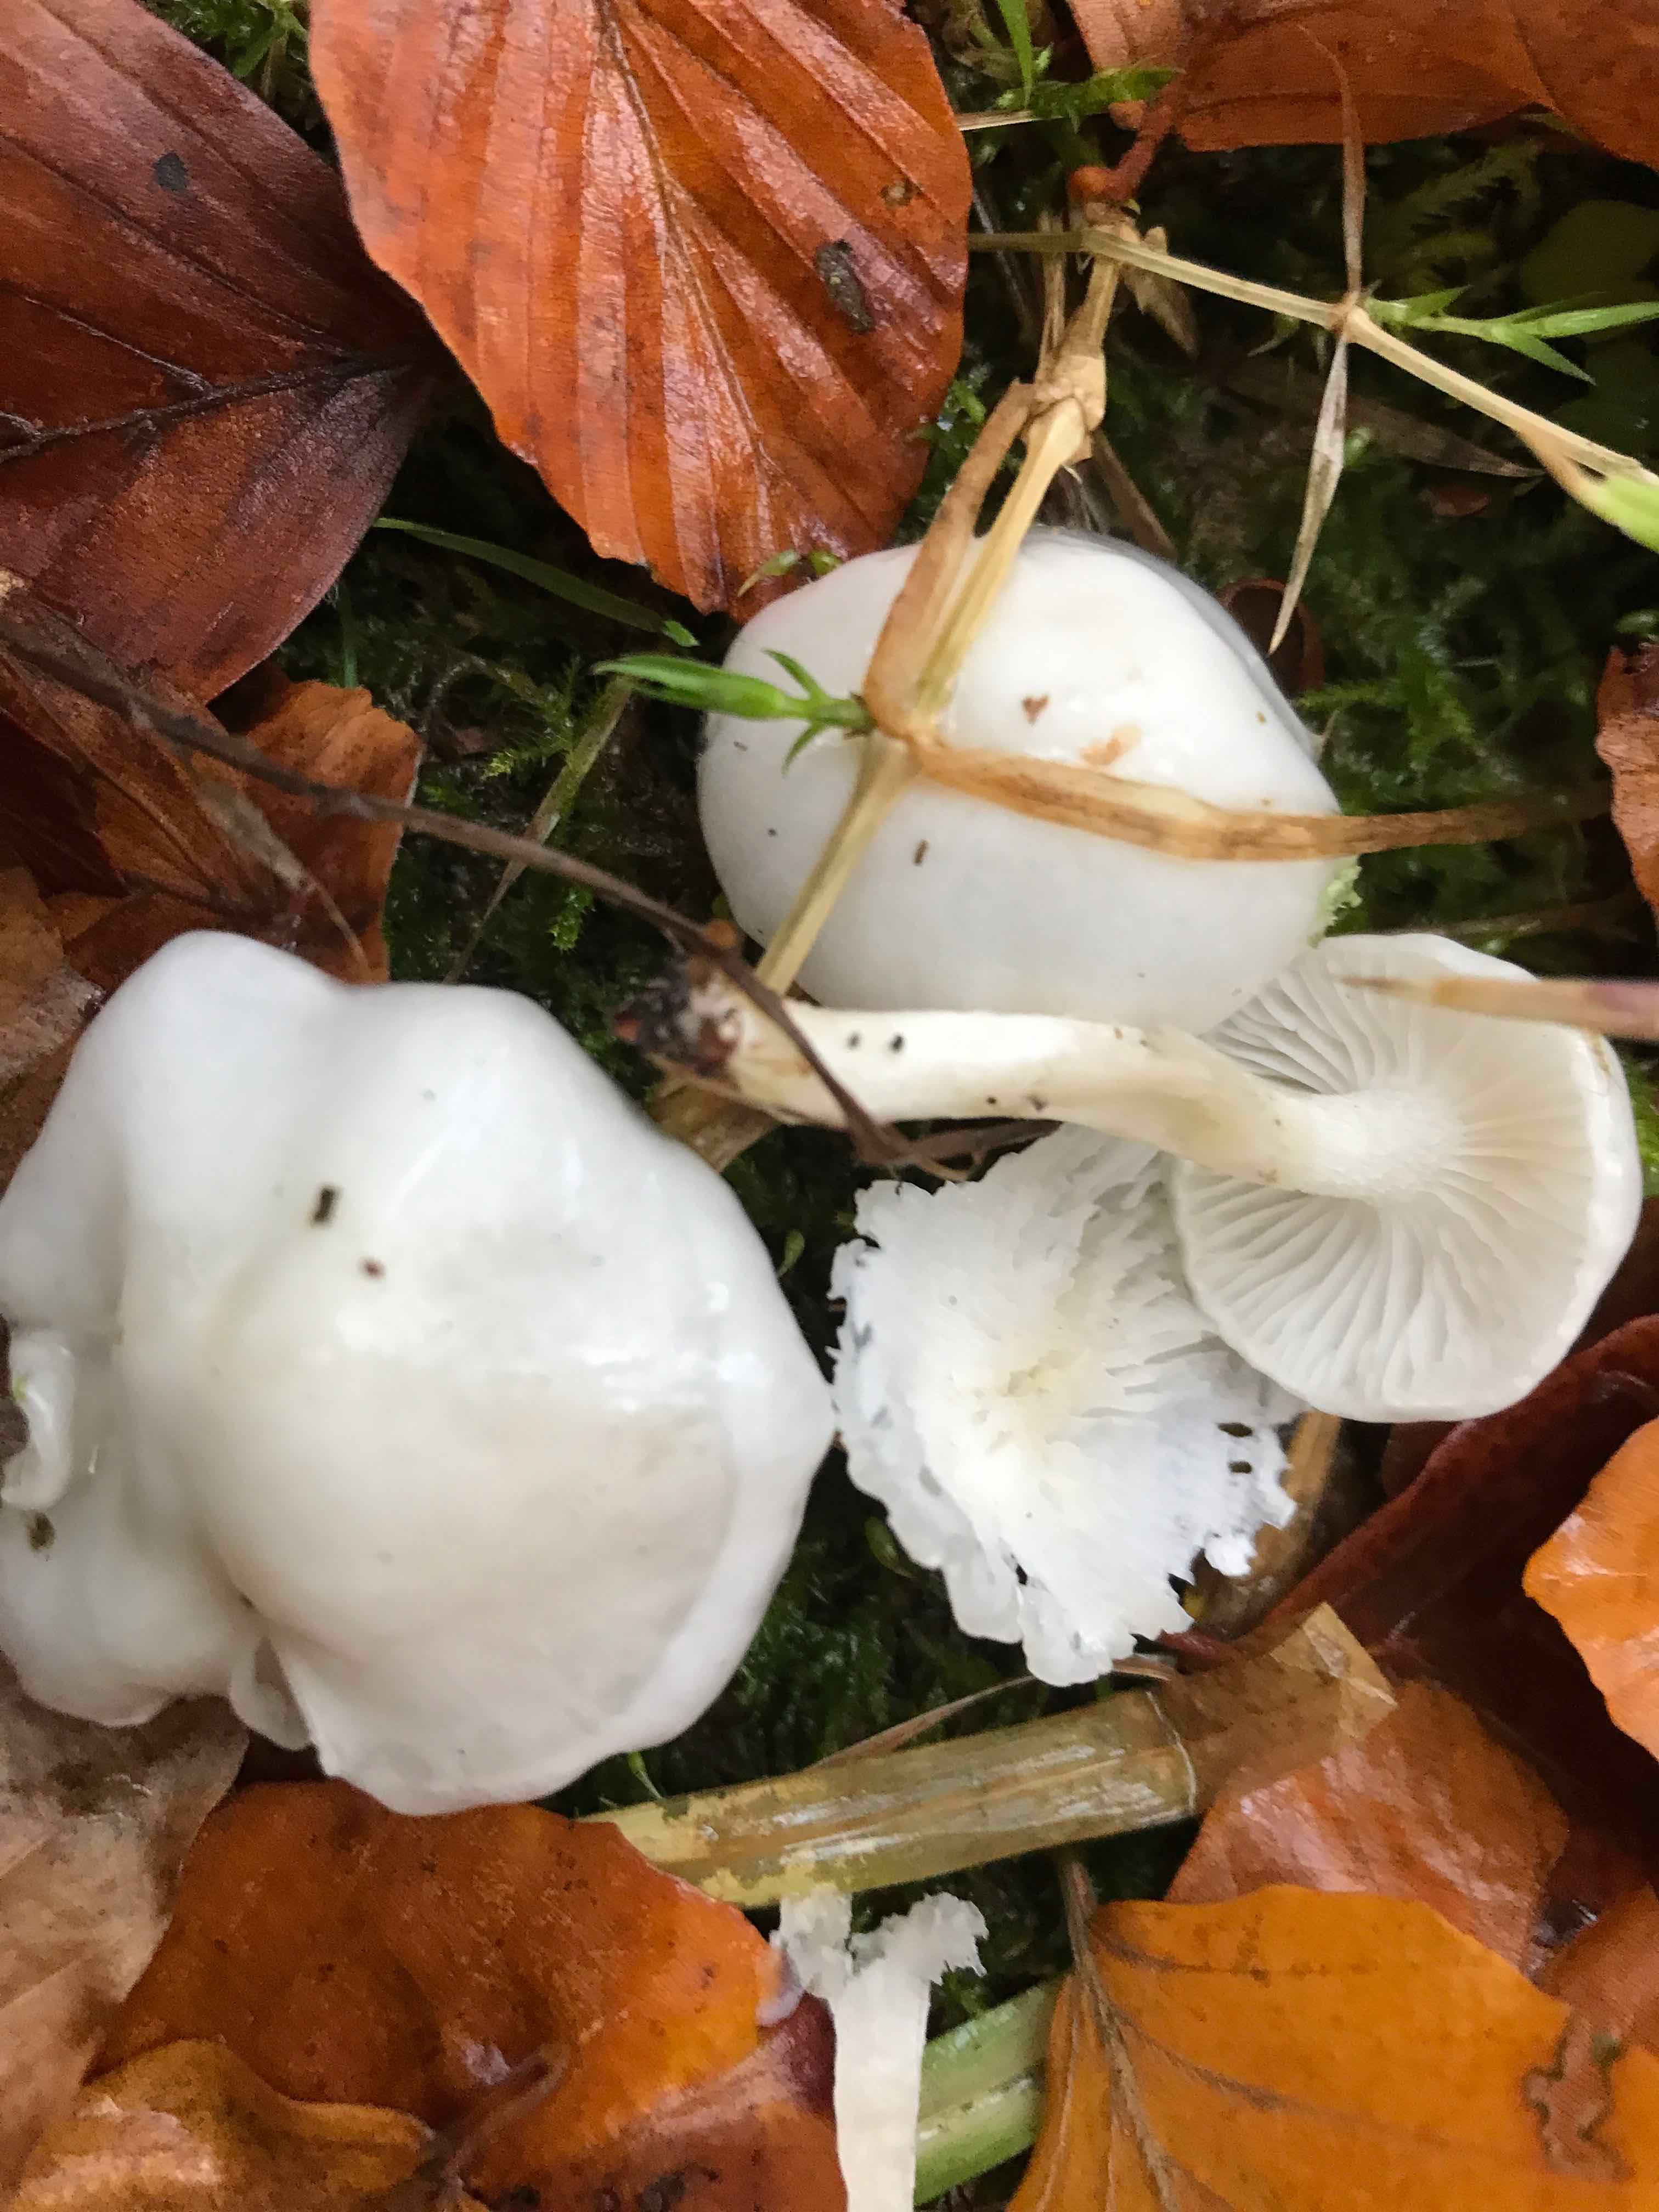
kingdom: Fungi
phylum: Basidiomycota
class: Agaricomycetes
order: Agaricales
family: Hygrophoraceae
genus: Hygrophorus
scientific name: Hygrophorus eburneus
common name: elfenbens-sneglehat
